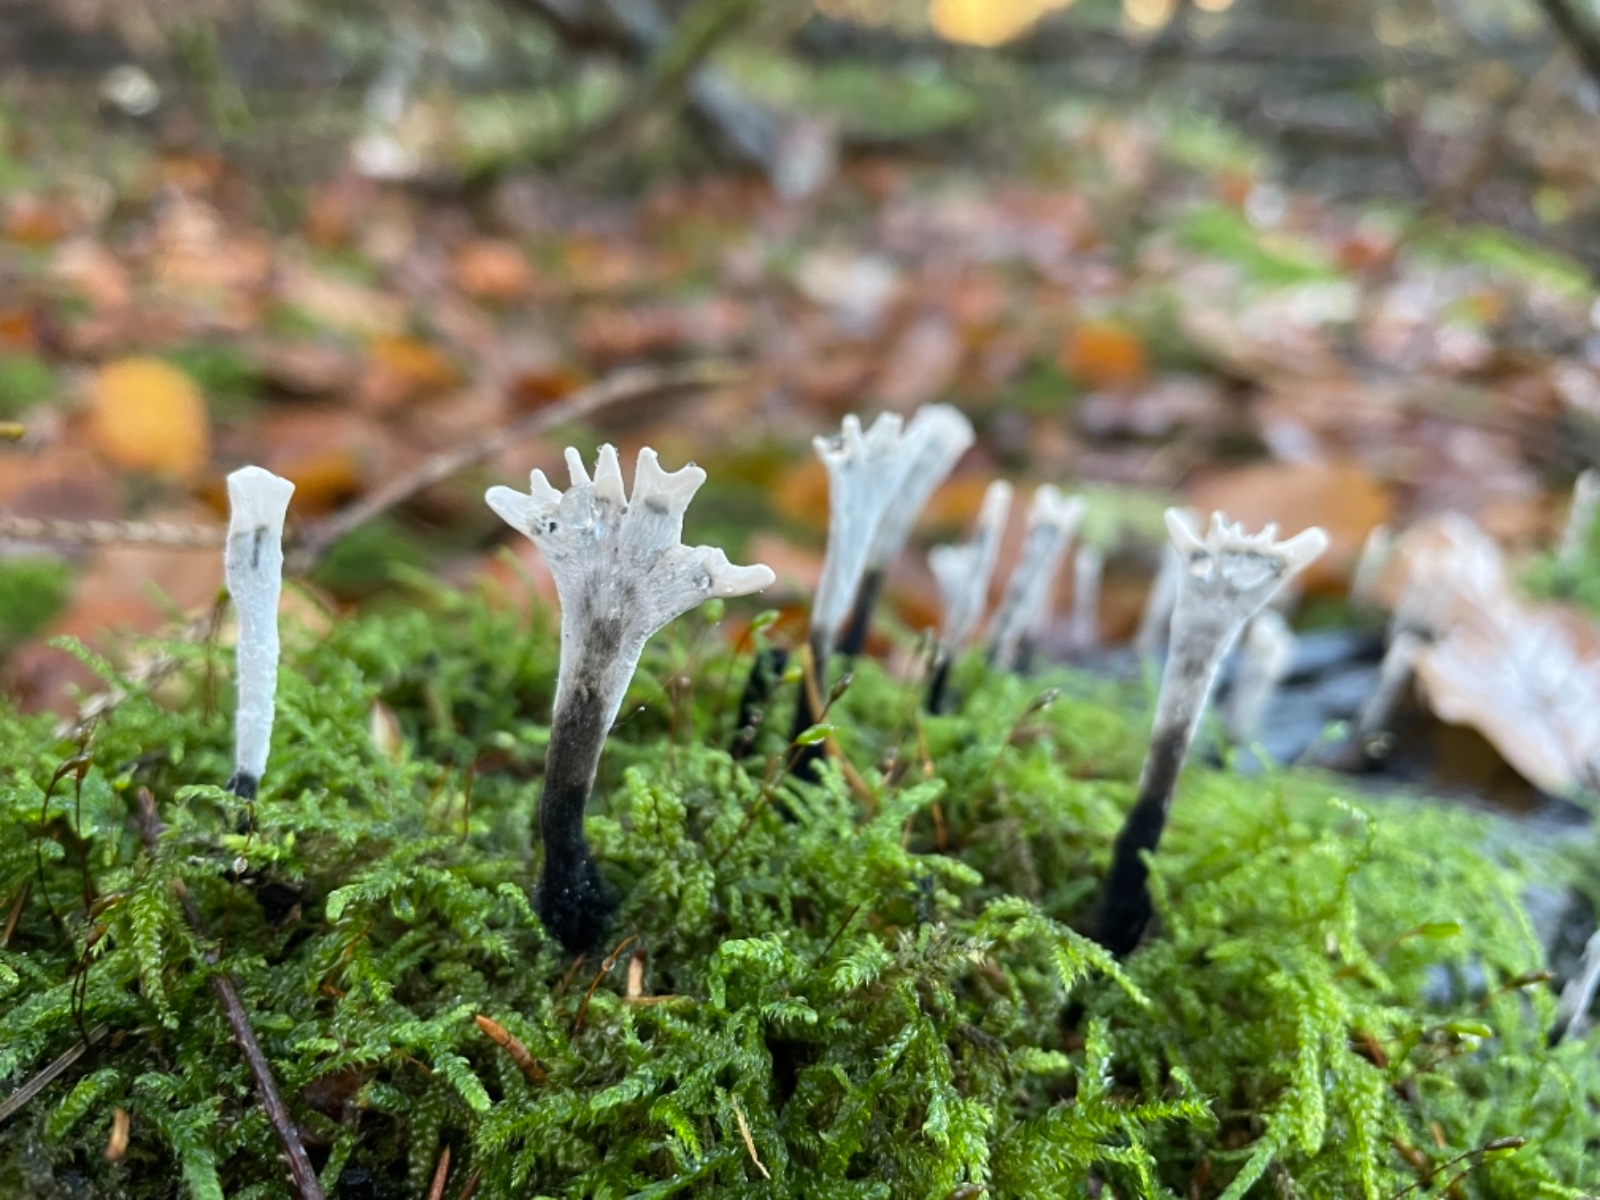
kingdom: Fungi
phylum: Ascomycota
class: Sordariomycetes
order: Xylariales
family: Xylariaceae
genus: Xylaria
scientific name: Xylaria hypoxylon
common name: grenet stødsvamp
